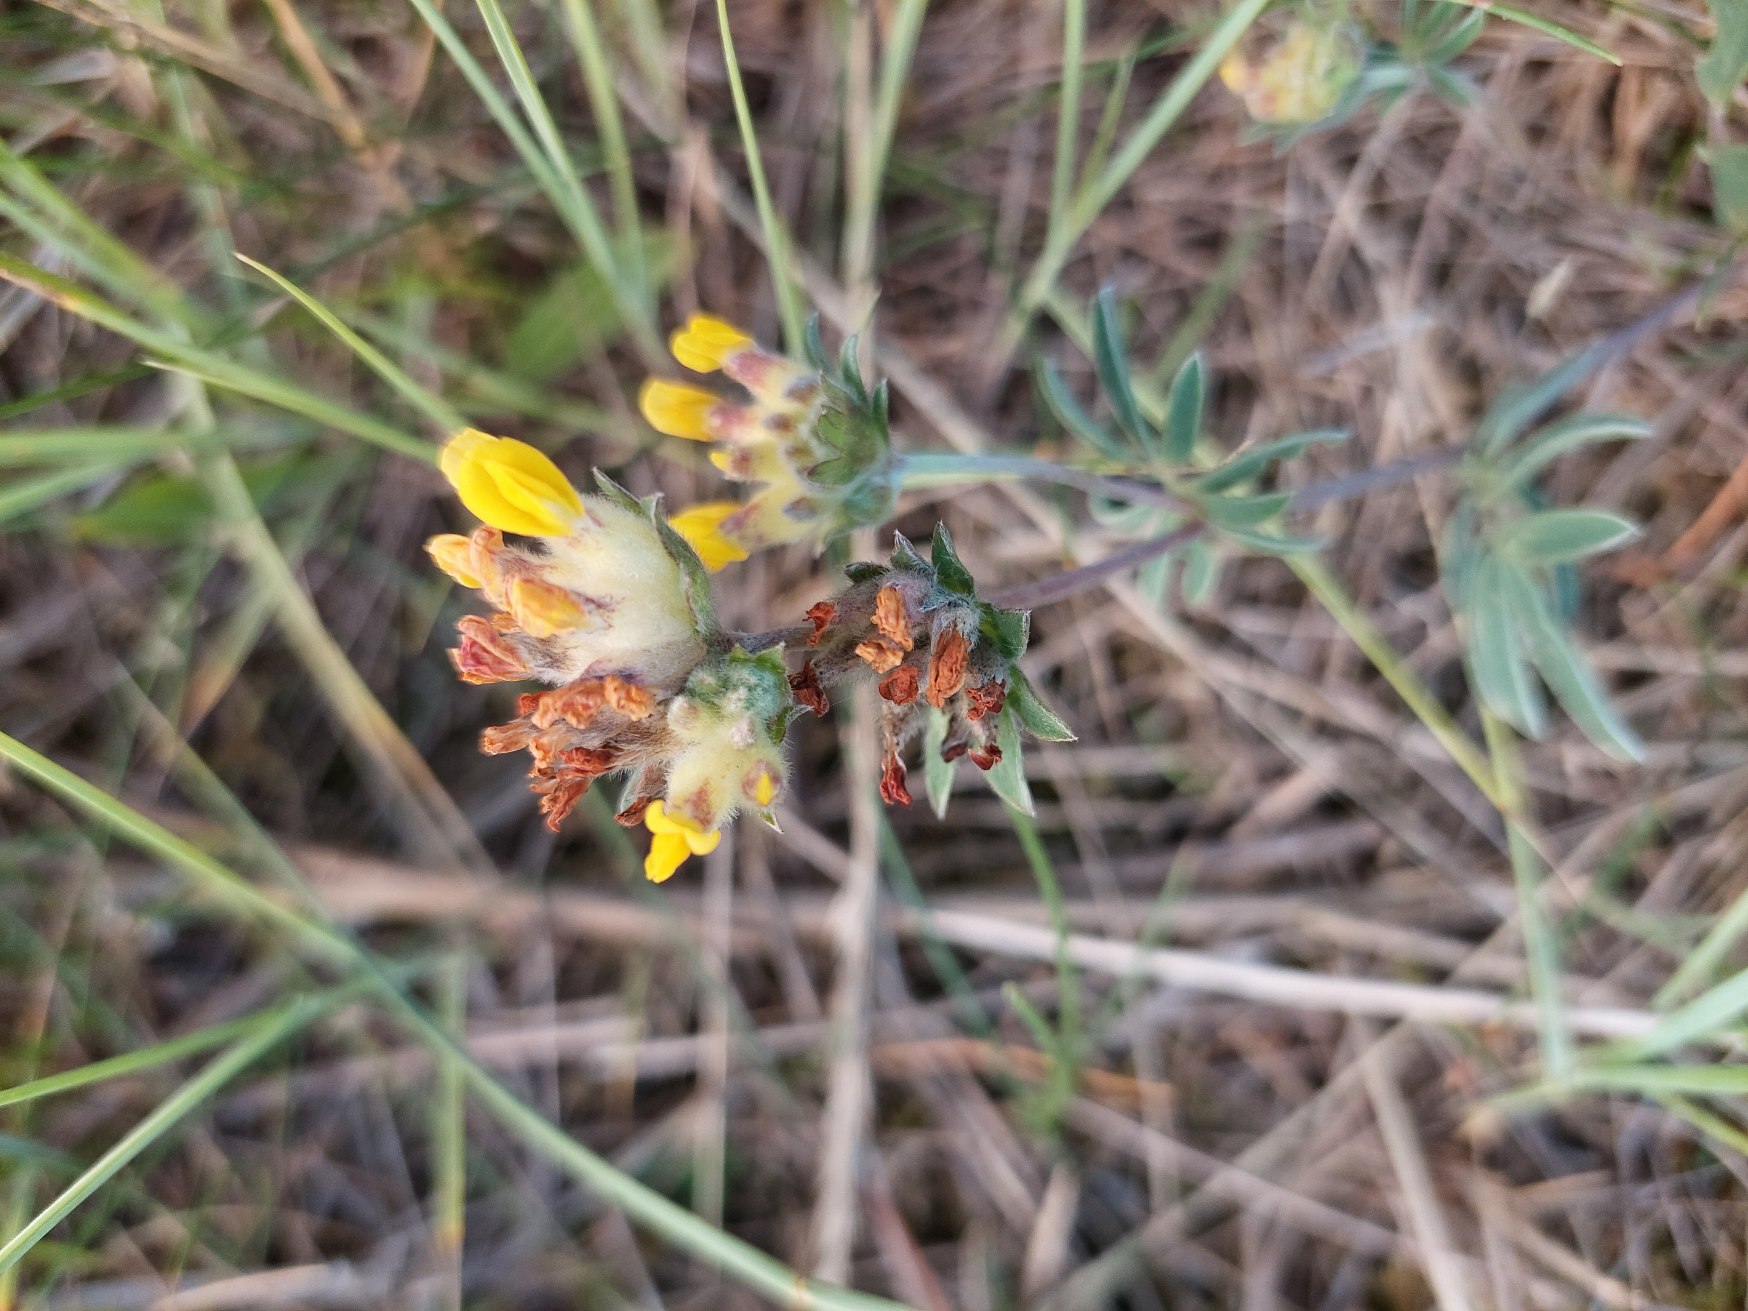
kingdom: Plantae
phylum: Tracheophyta
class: Magnoliopsida
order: Fabales
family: Fabaceae
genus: Anthyllis
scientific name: Anthyllis vulneraria
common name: Rundbælg
